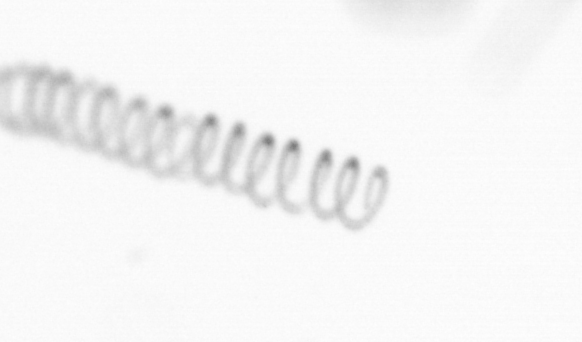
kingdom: Chromista
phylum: Ochrophyta
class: Bacillariophyceae
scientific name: Bacillariophyceae
